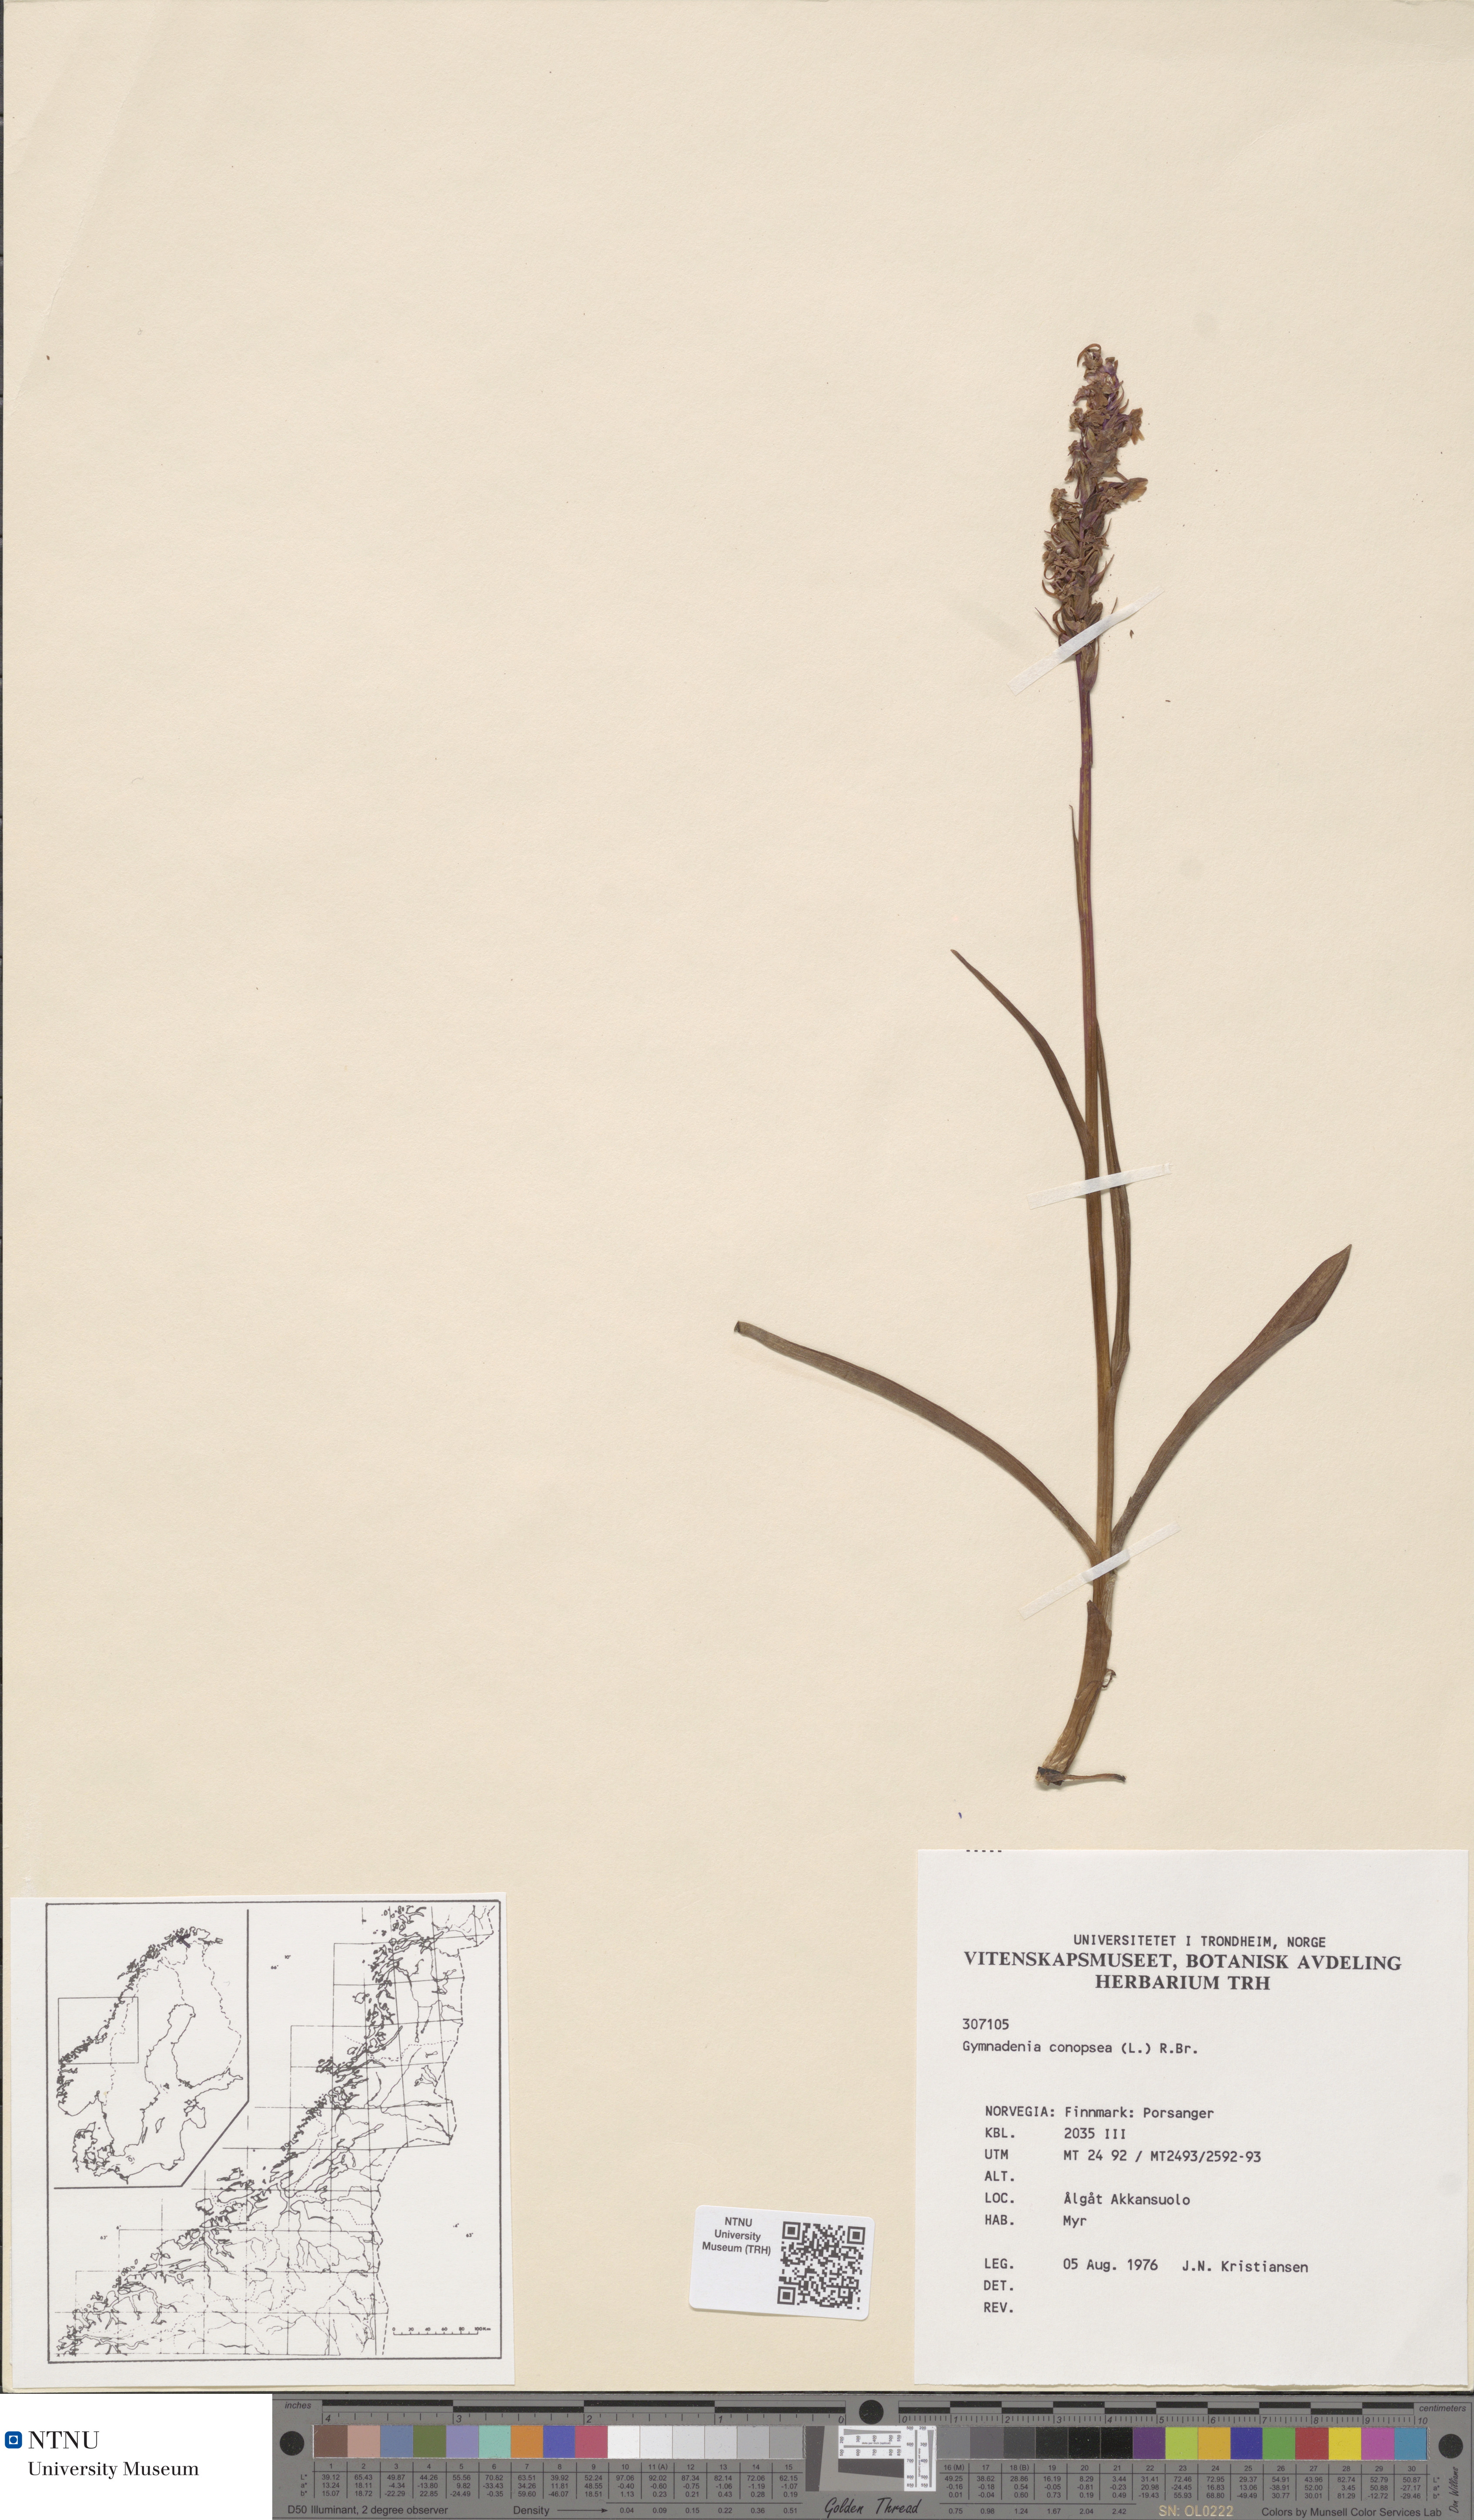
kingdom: Plantae
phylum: Tracheophyta
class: Liliopsida
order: Asparagales
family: Orchidaceae
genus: Gymnadenia
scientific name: Gymnadenia conopsea
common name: Fragrant orchid
